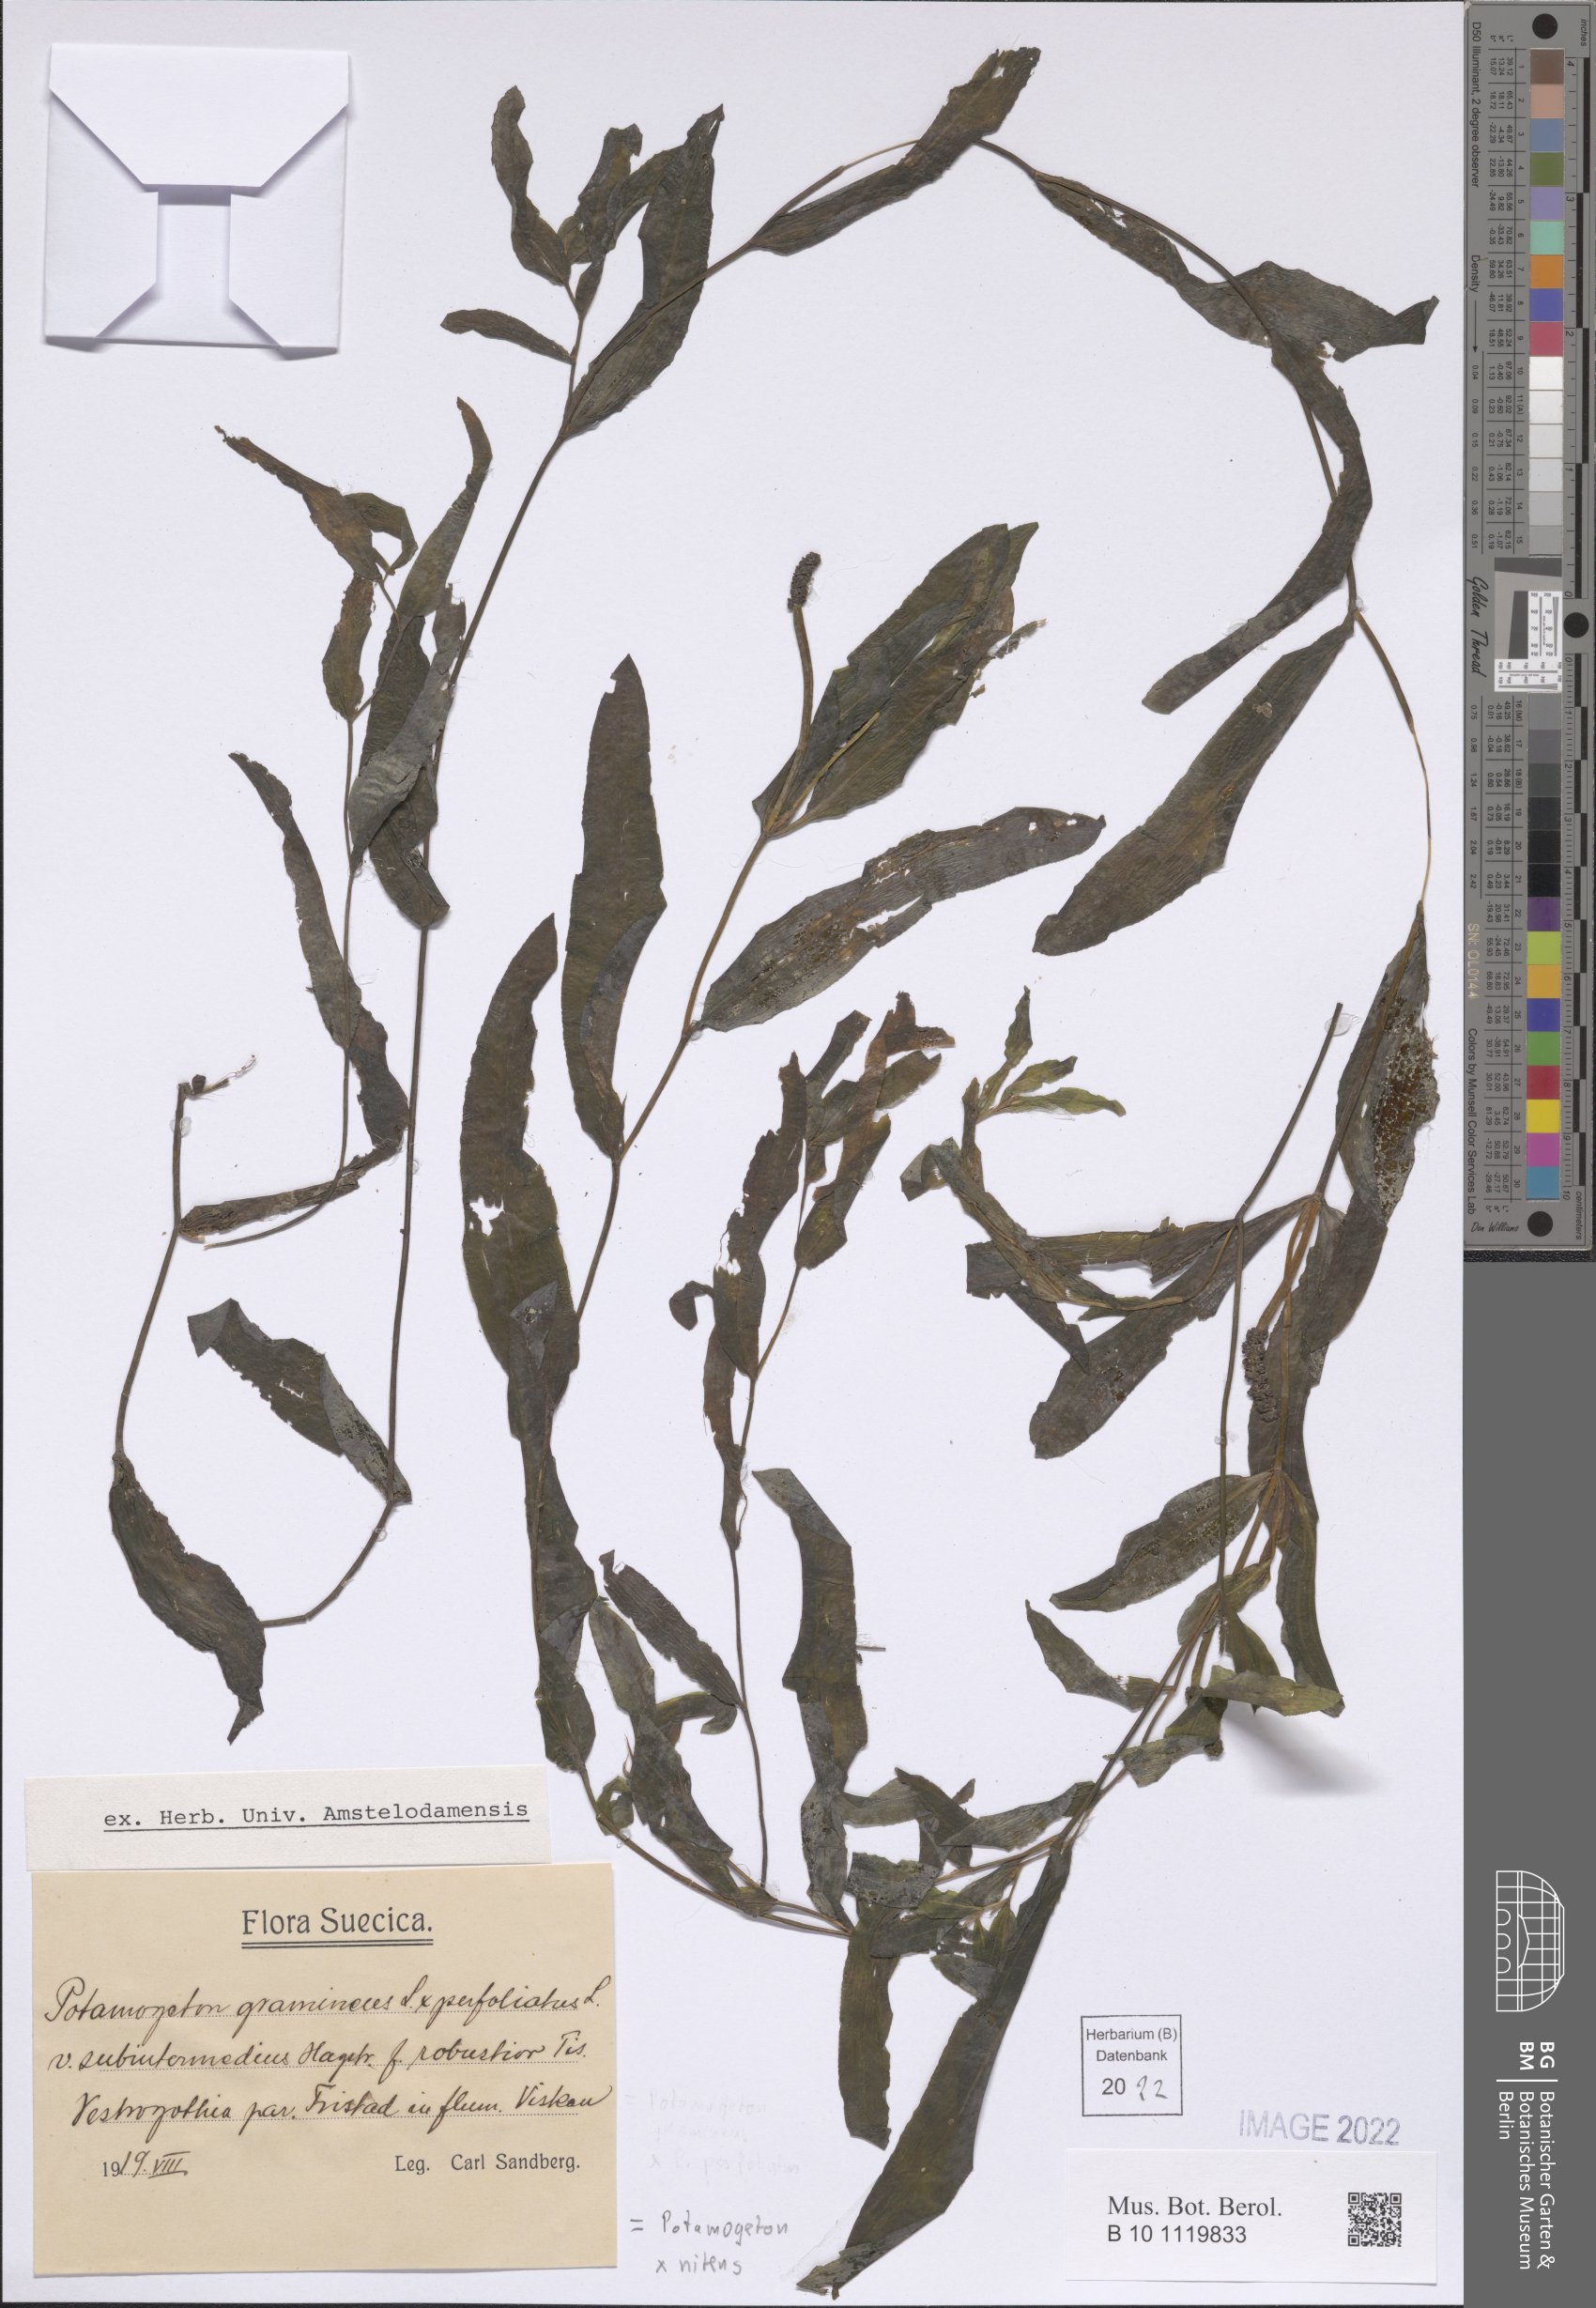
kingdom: Plantae
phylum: Tracheophyta
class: Liliopsida
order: Alismatales
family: Potamogetonaceae
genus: Potamogeton
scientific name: Potamogeton nitens
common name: Pondweed
